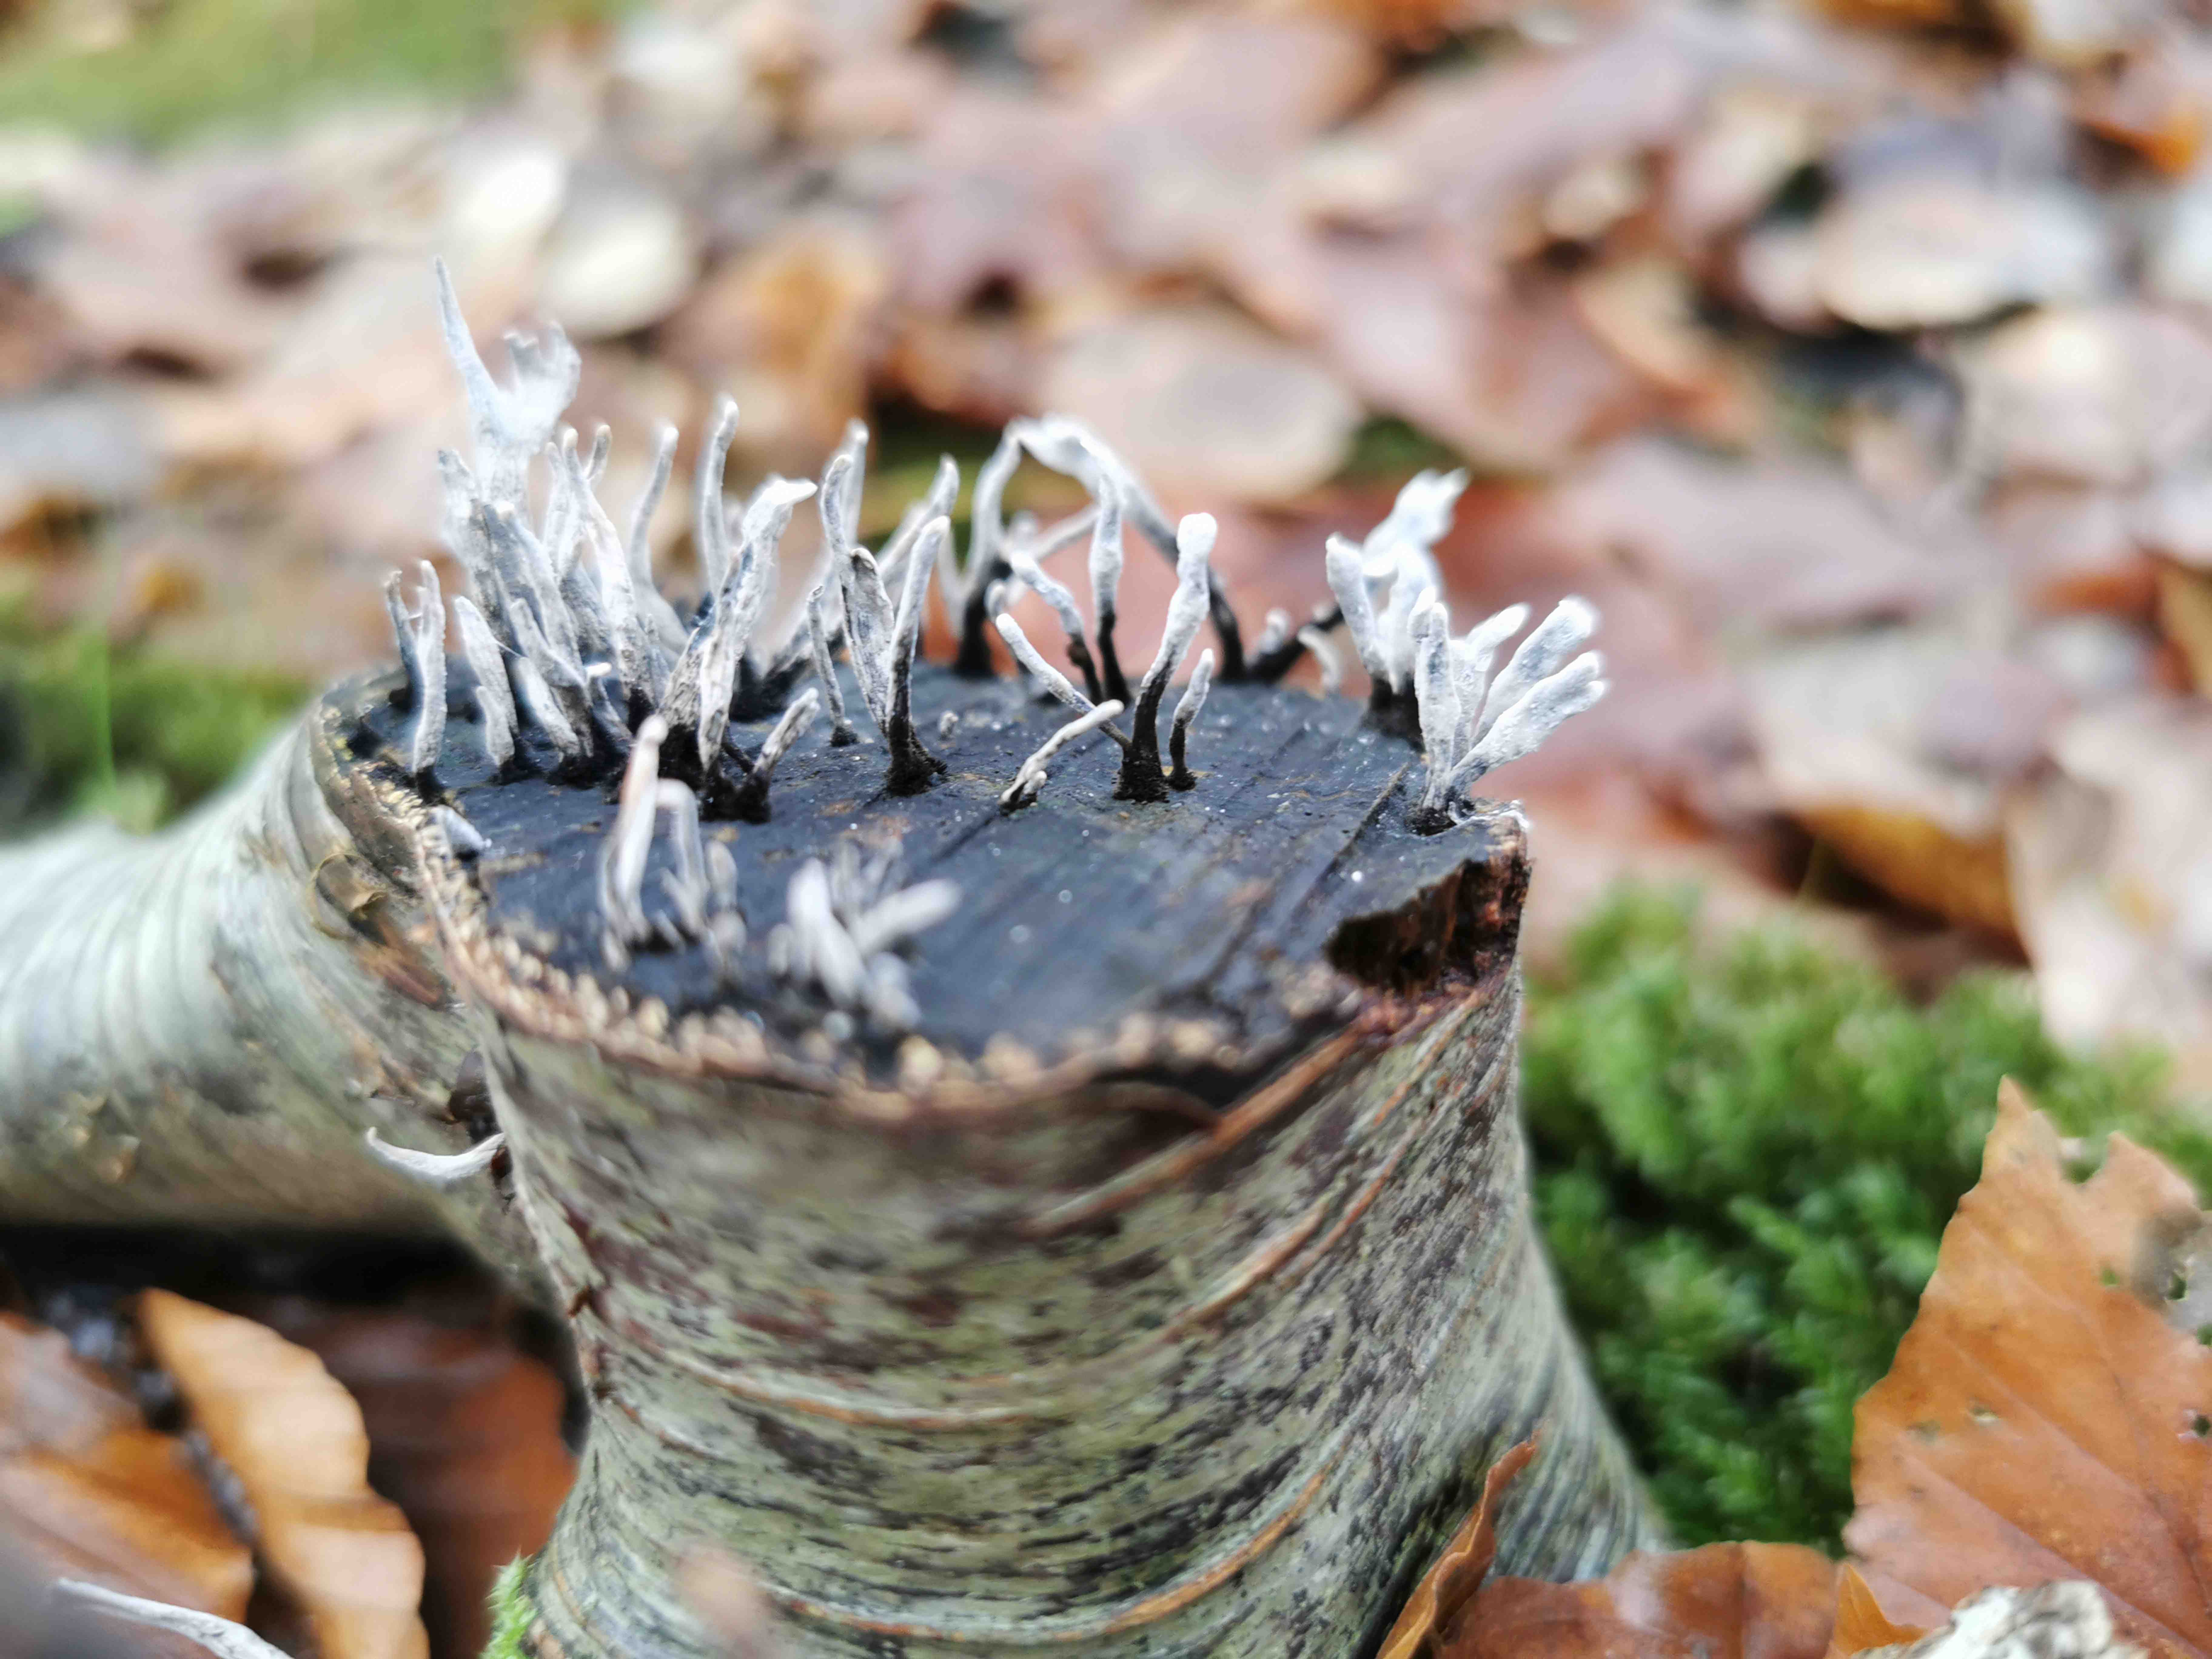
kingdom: Fungi
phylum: Ascomycota
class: Sordariomycetes
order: Xylariales
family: Xylariaceae
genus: Xylaria
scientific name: Xylaria hypoxylon
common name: grenet stødsvamp
